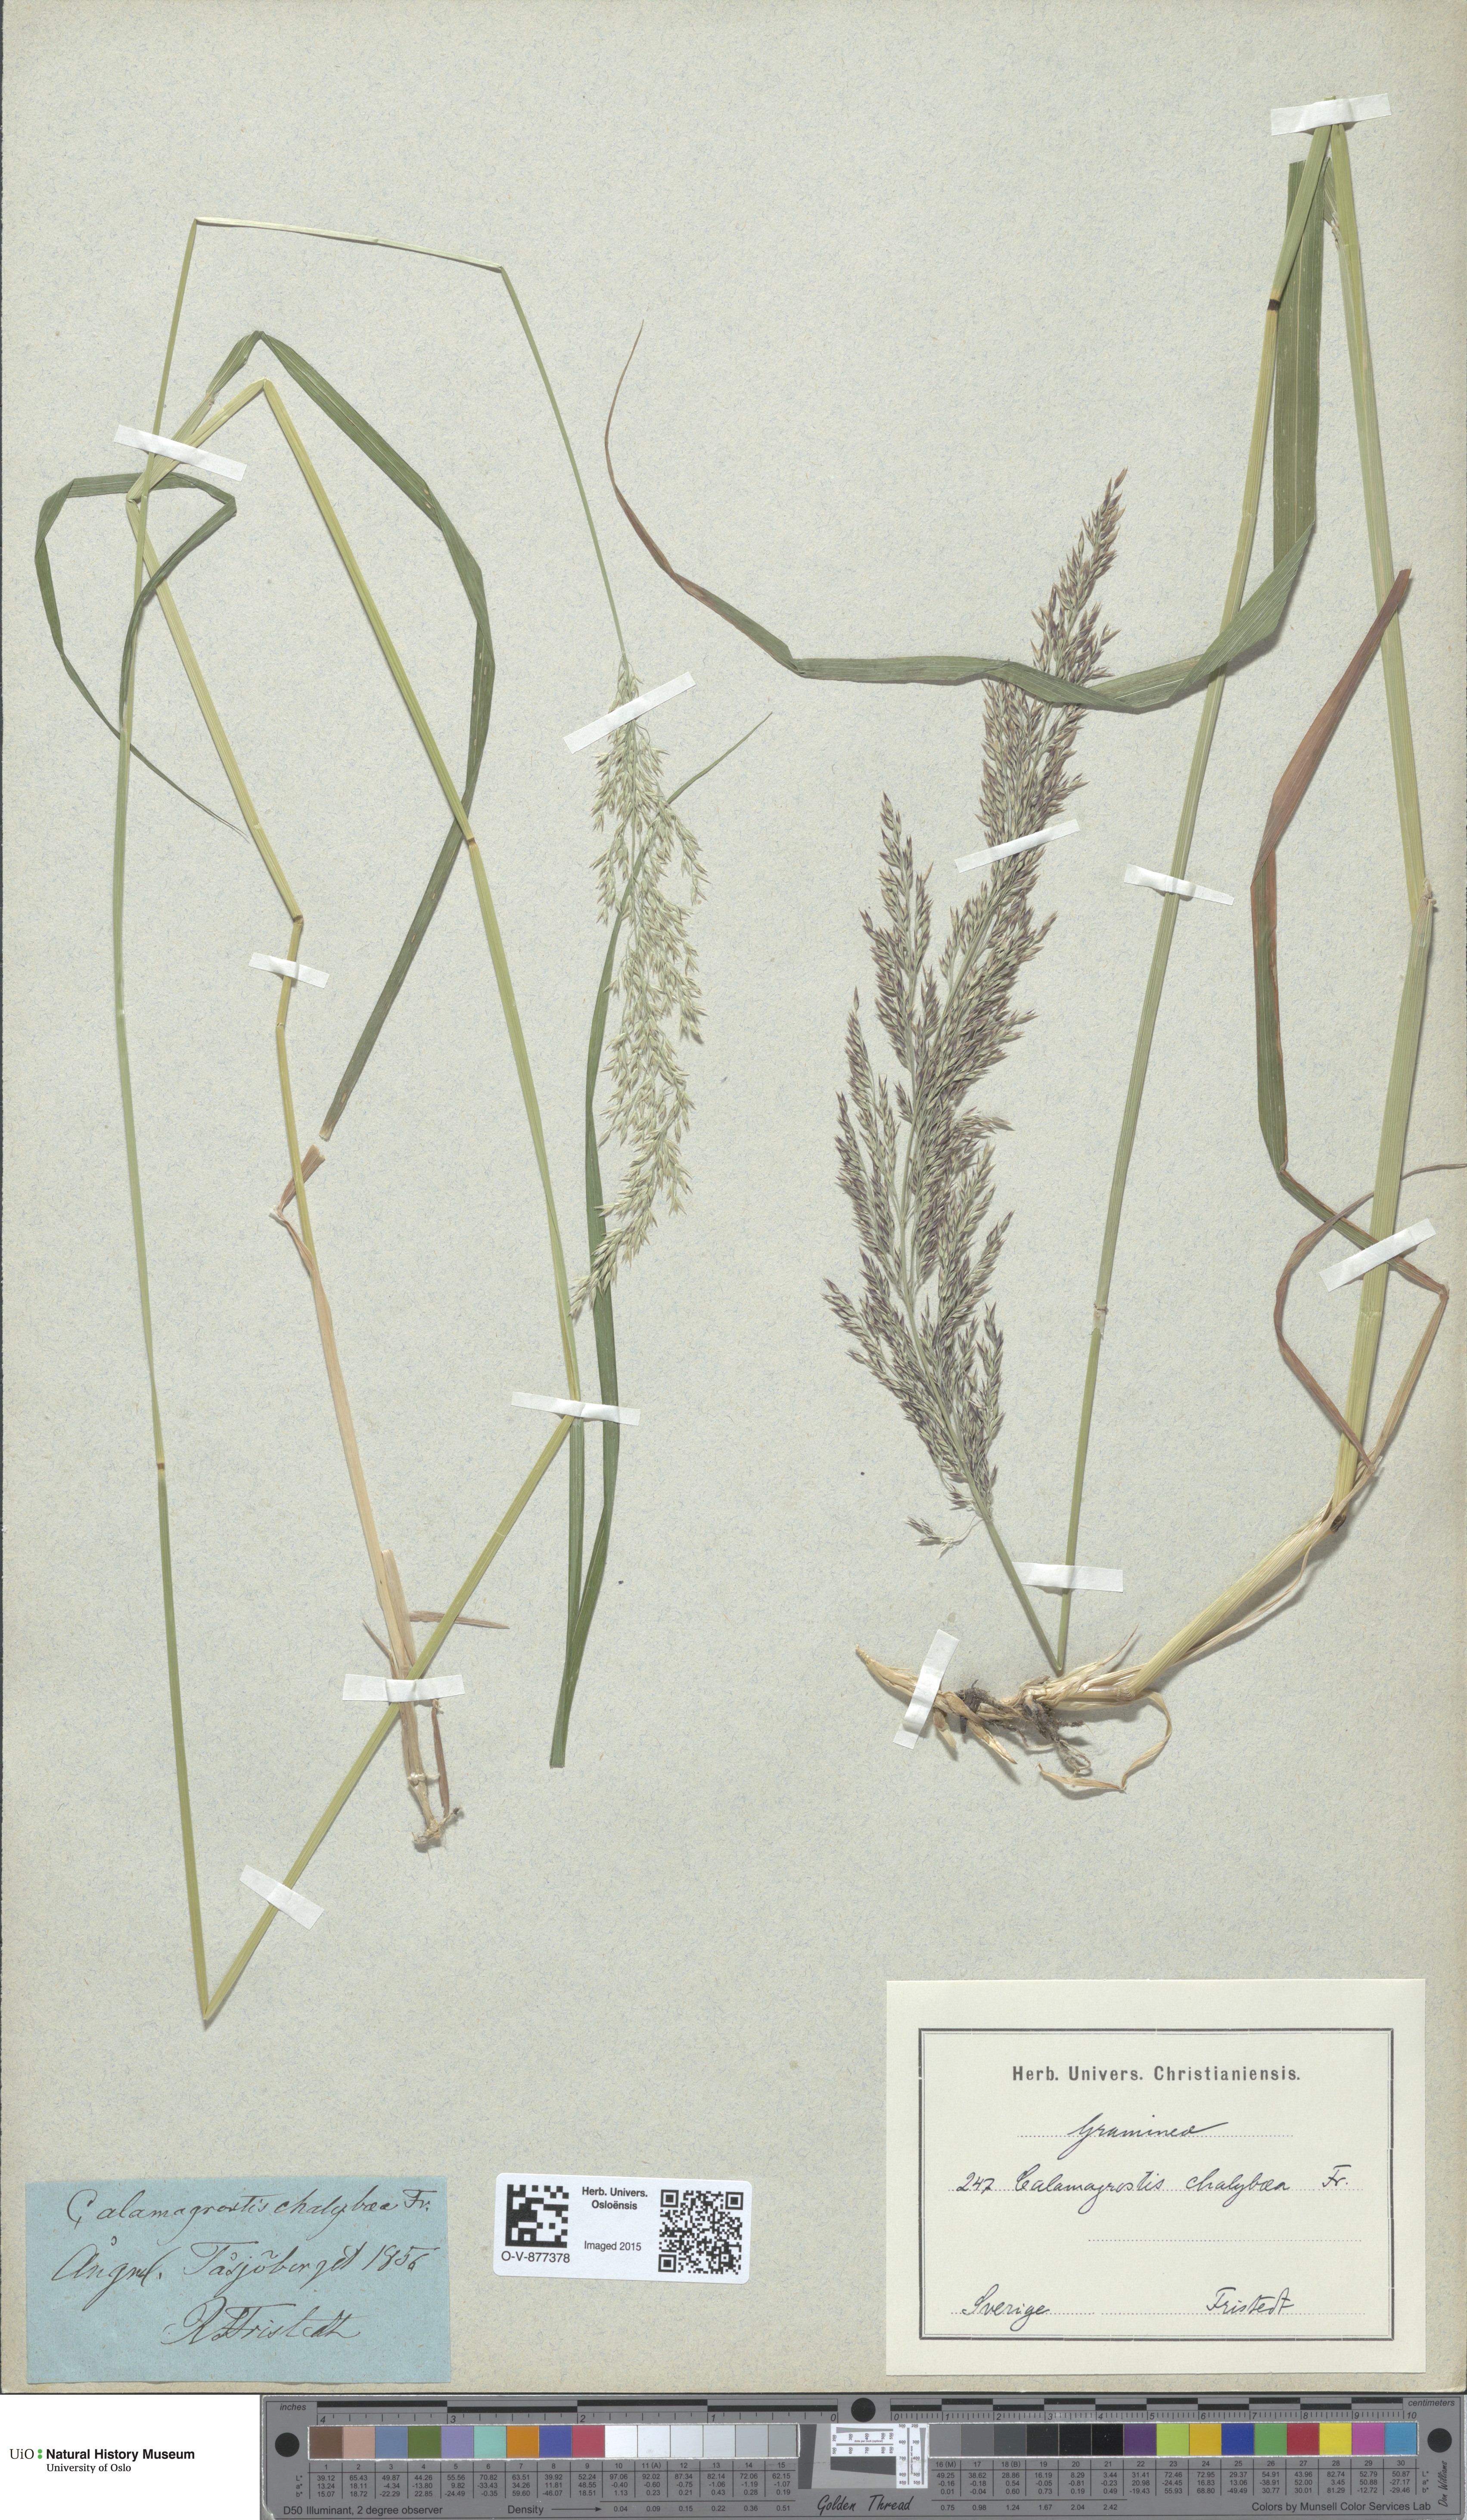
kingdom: Plantae
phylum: Tracheophyta
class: Liliopsida
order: Poales
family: Poaceae
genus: Calamagrostis
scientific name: Calamagrostis chalybaea
